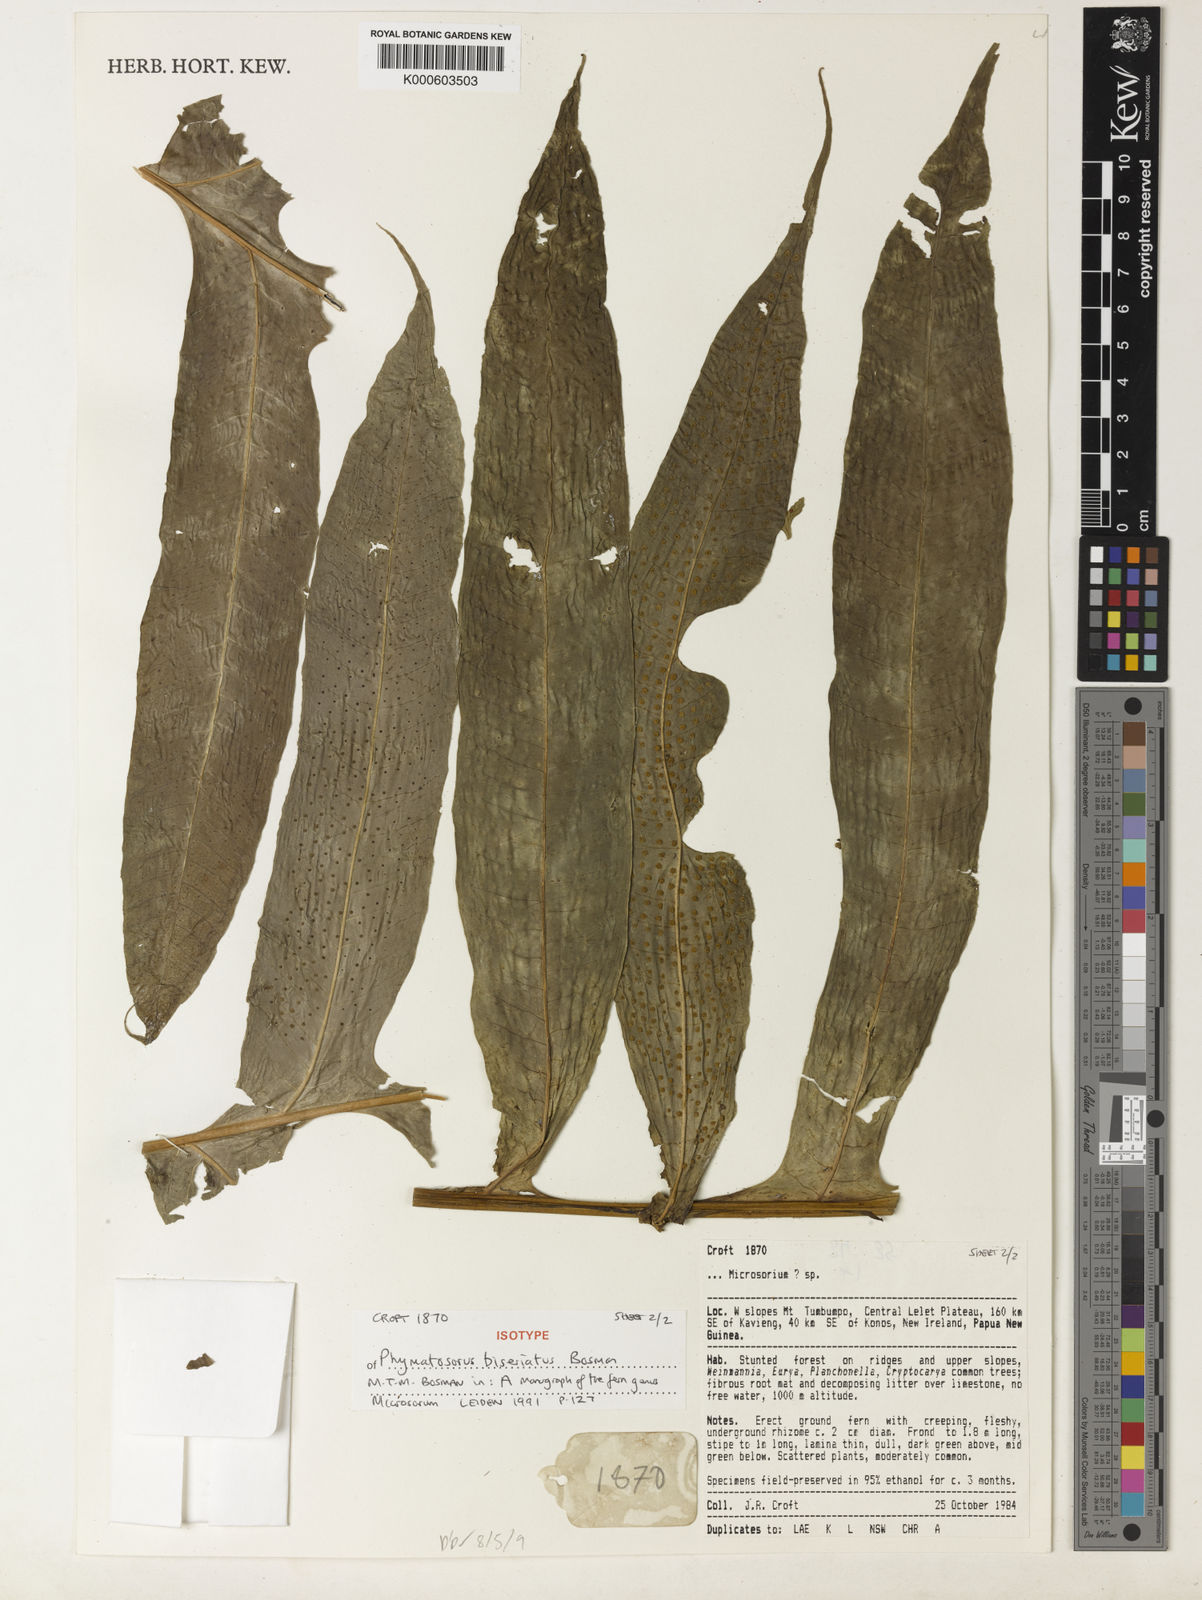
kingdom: Plantae
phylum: Tracheophyta
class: Polypodiopsida
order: Polypodiales
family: Polypodiaceae
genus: Microsorum
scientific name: Microsorum biseriatum
